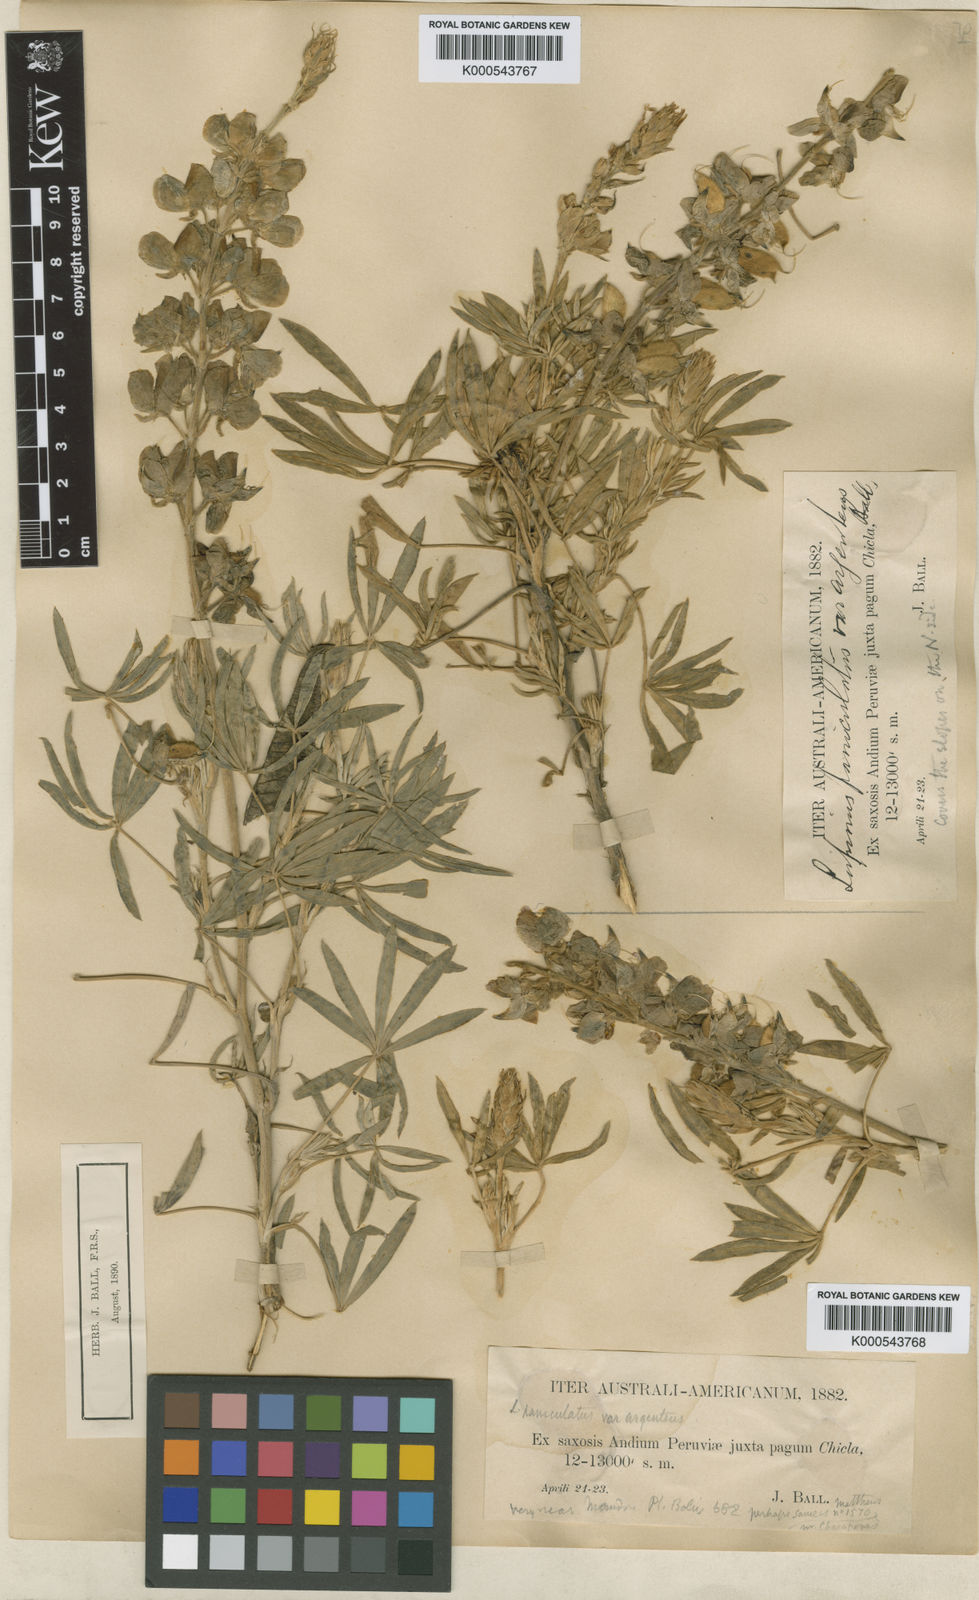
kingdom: Plantae
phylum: Tracheophyta
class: Magnoliopsida
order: Fabales
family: Fabaceae
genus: Lupinus
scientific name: Lupinus paniculatus
